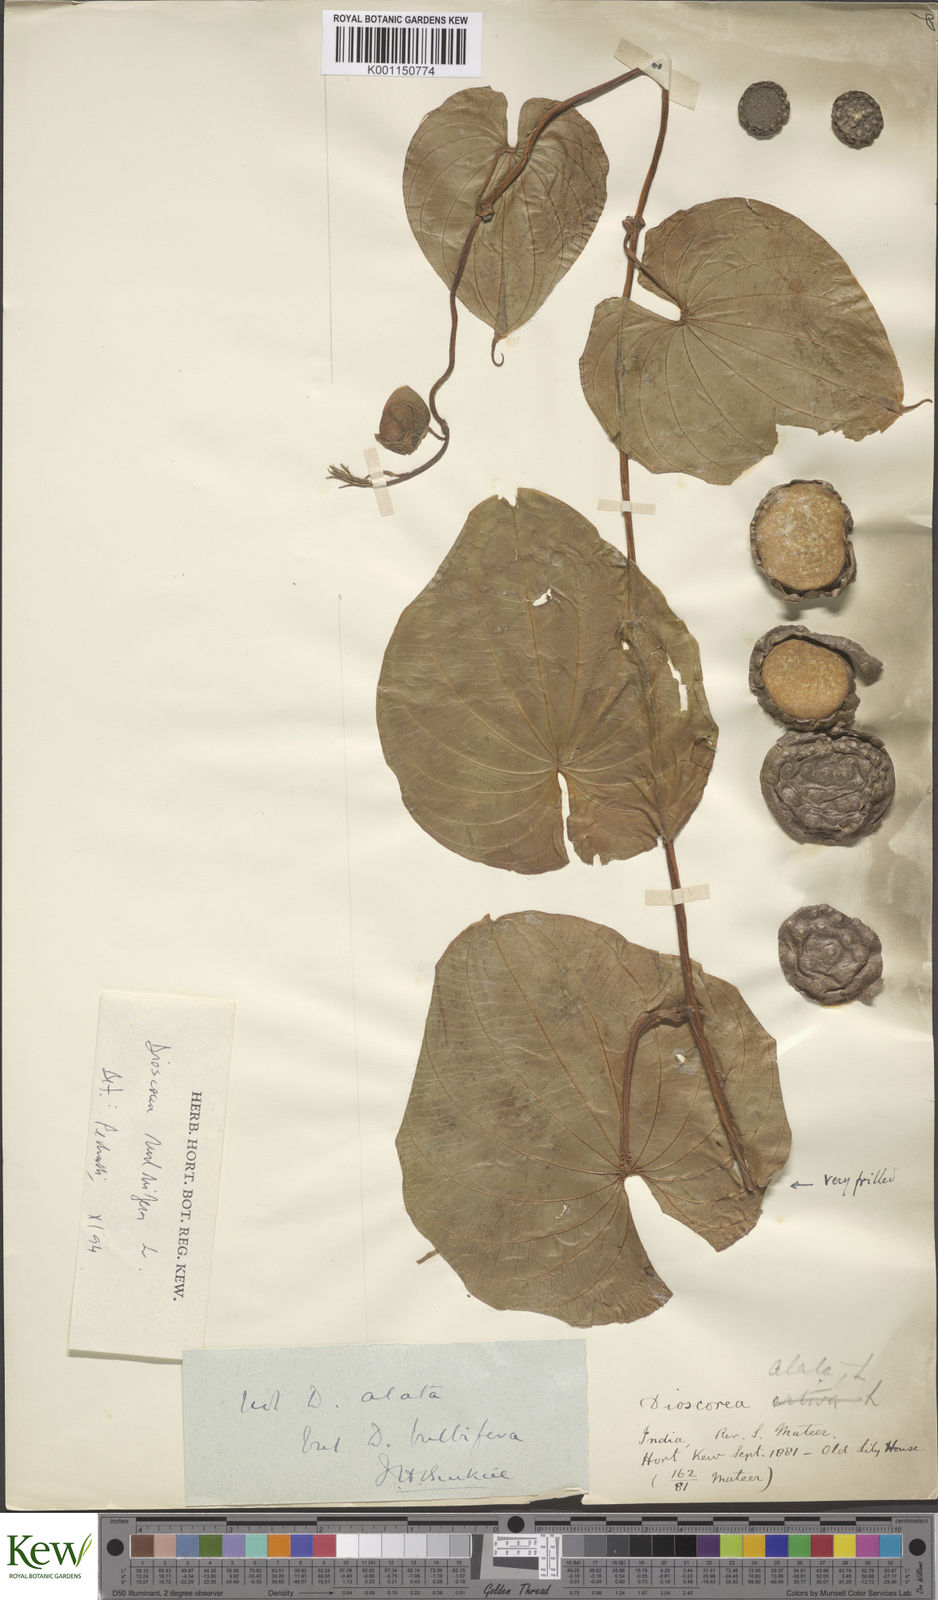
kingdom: Plantae
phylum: Tracheophyta
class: Liliopsida
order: Dioscoreales
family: Dioscoreaceae
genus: Dioscorea
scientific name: Dioscorea bulbifera
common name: Air yam
